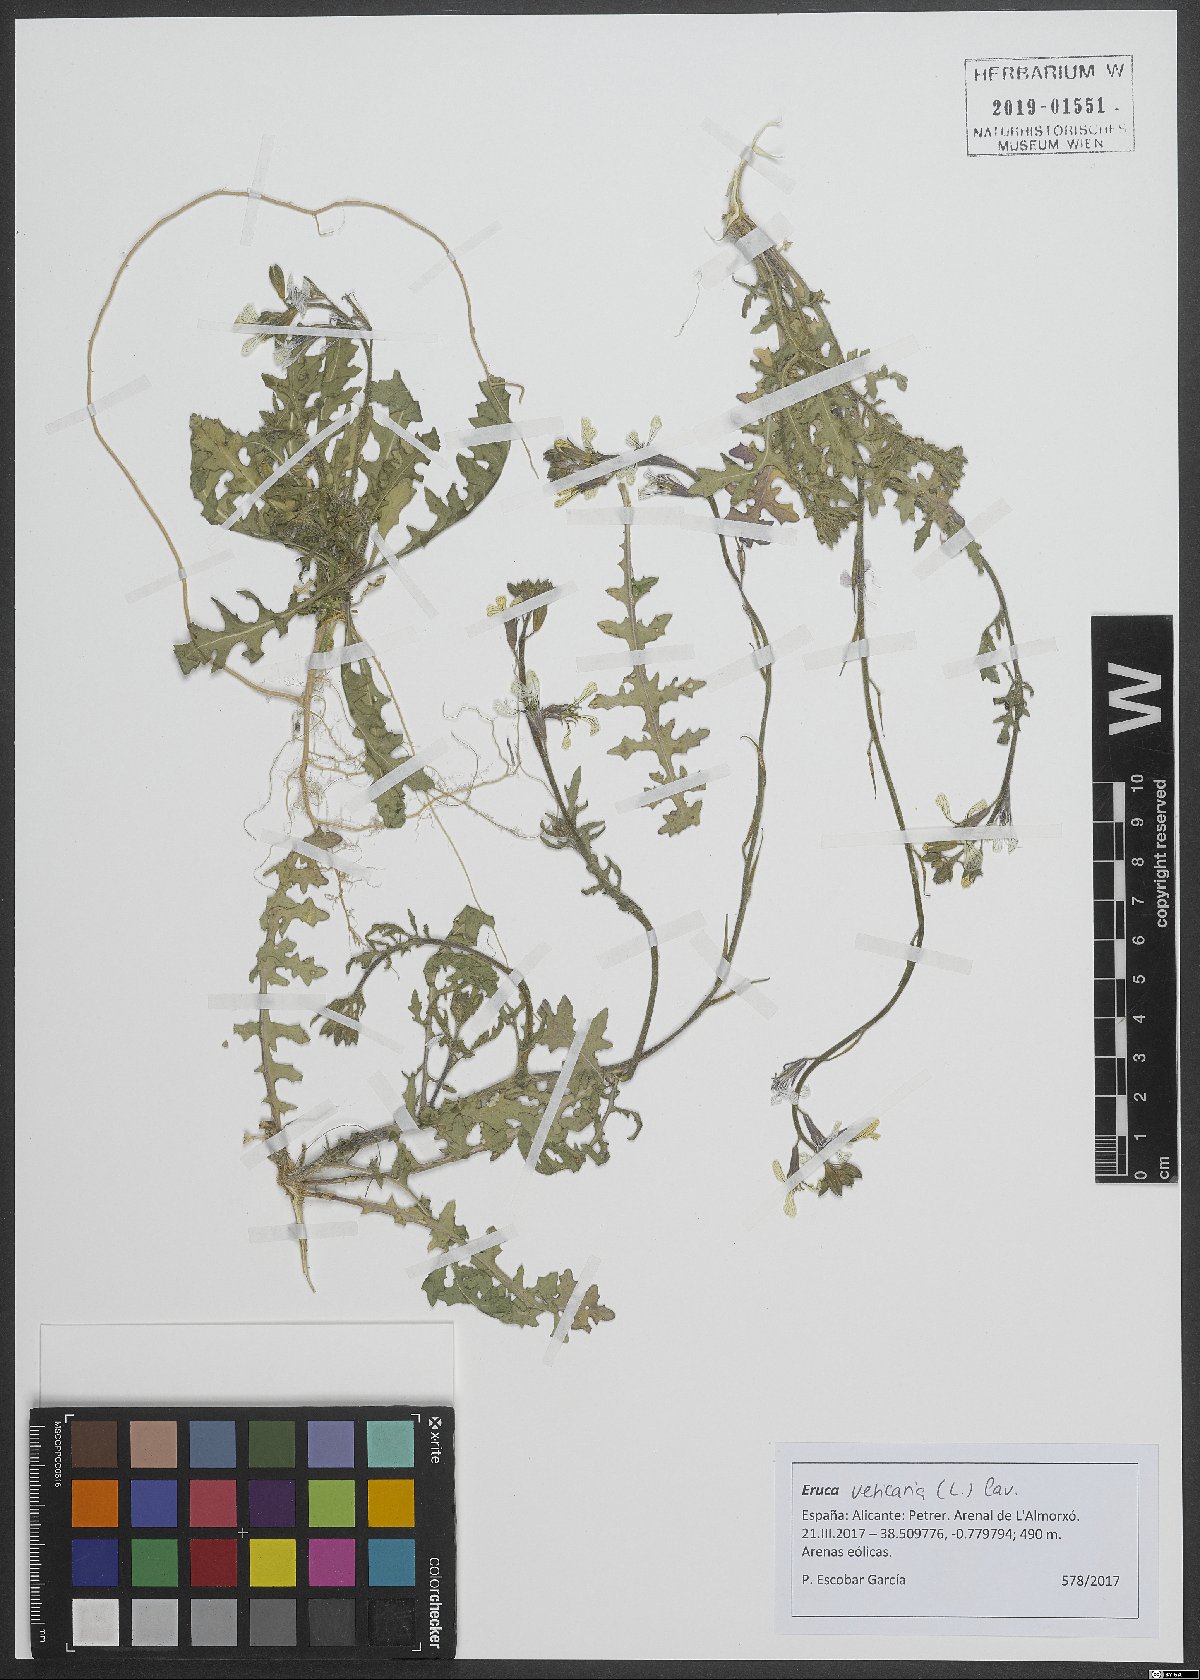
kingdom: Plantae
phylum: Tracheophyta
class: Magnoliopsida
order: Brassicales
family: Brassicaceae
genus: Eruca
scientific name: Eruca vesicaria
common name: Garden rocket
